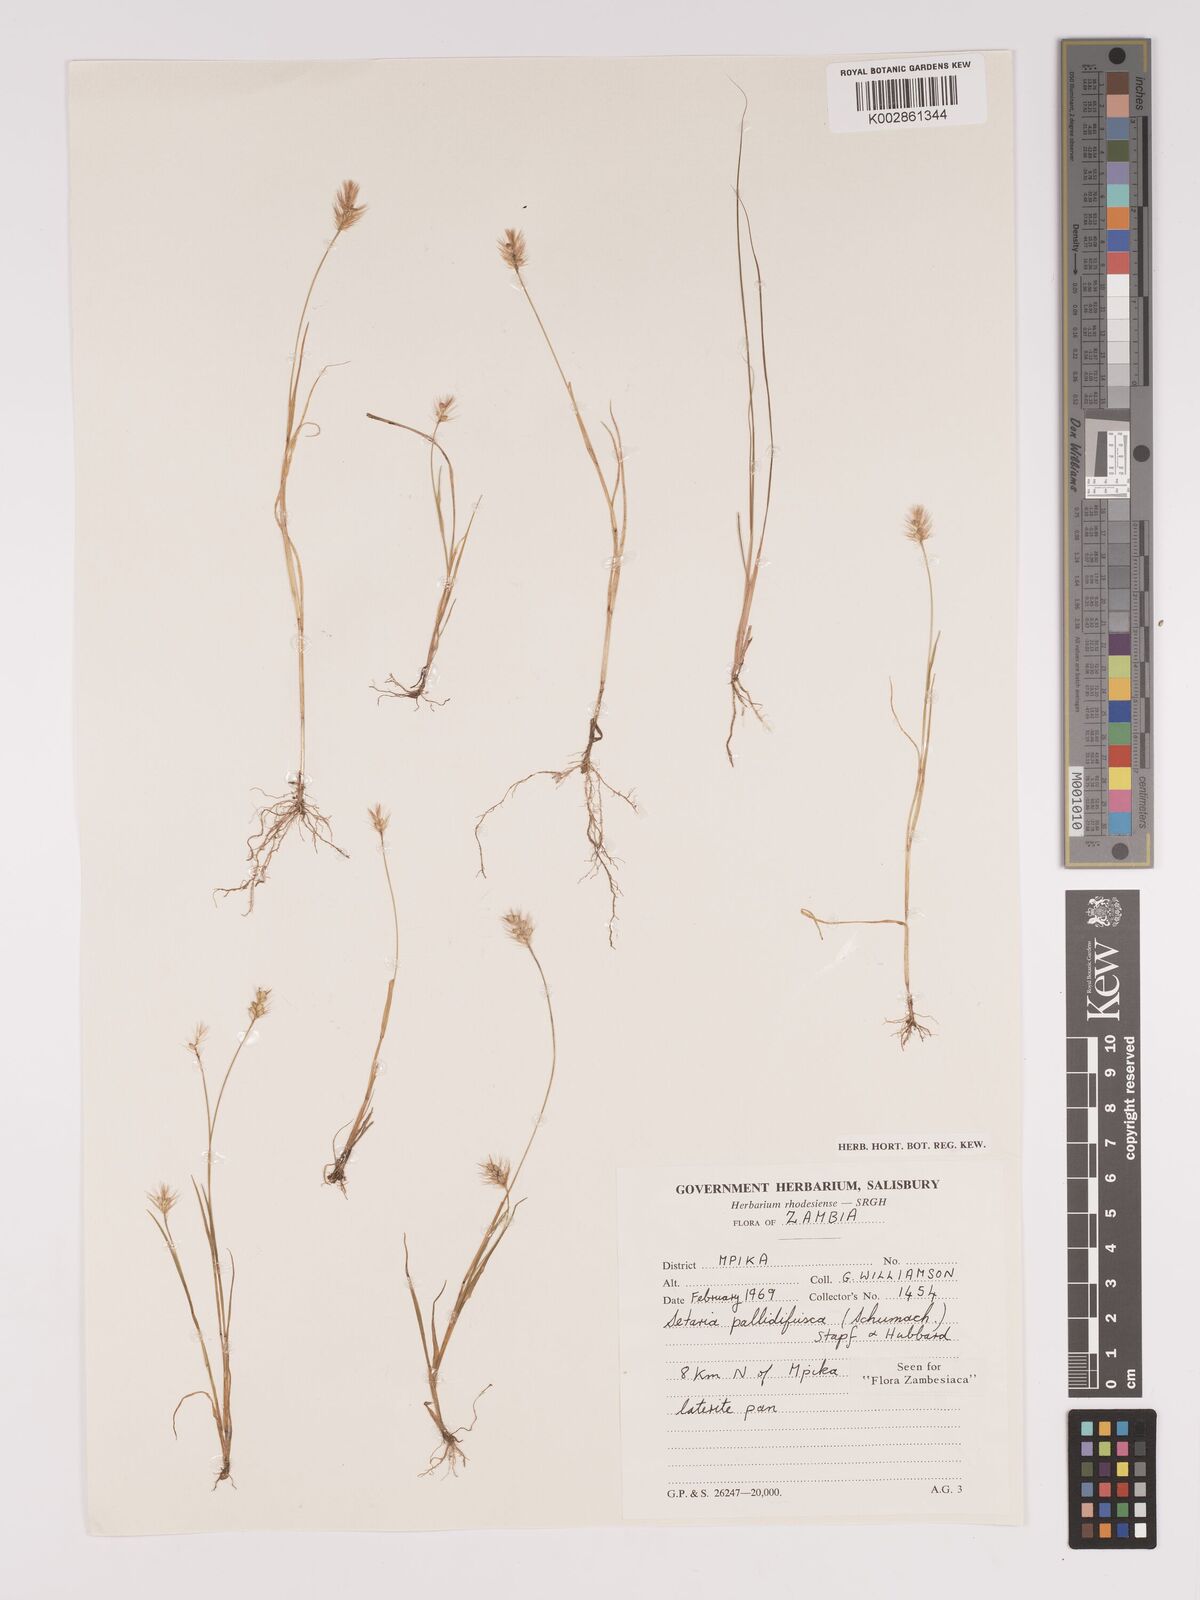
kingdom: Plantae
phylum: Tracheophyta
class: Liliopsida
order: Poales
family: Poaceae
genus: Setaria
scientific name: Setaria pumila
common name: Yellow bristle-grass
